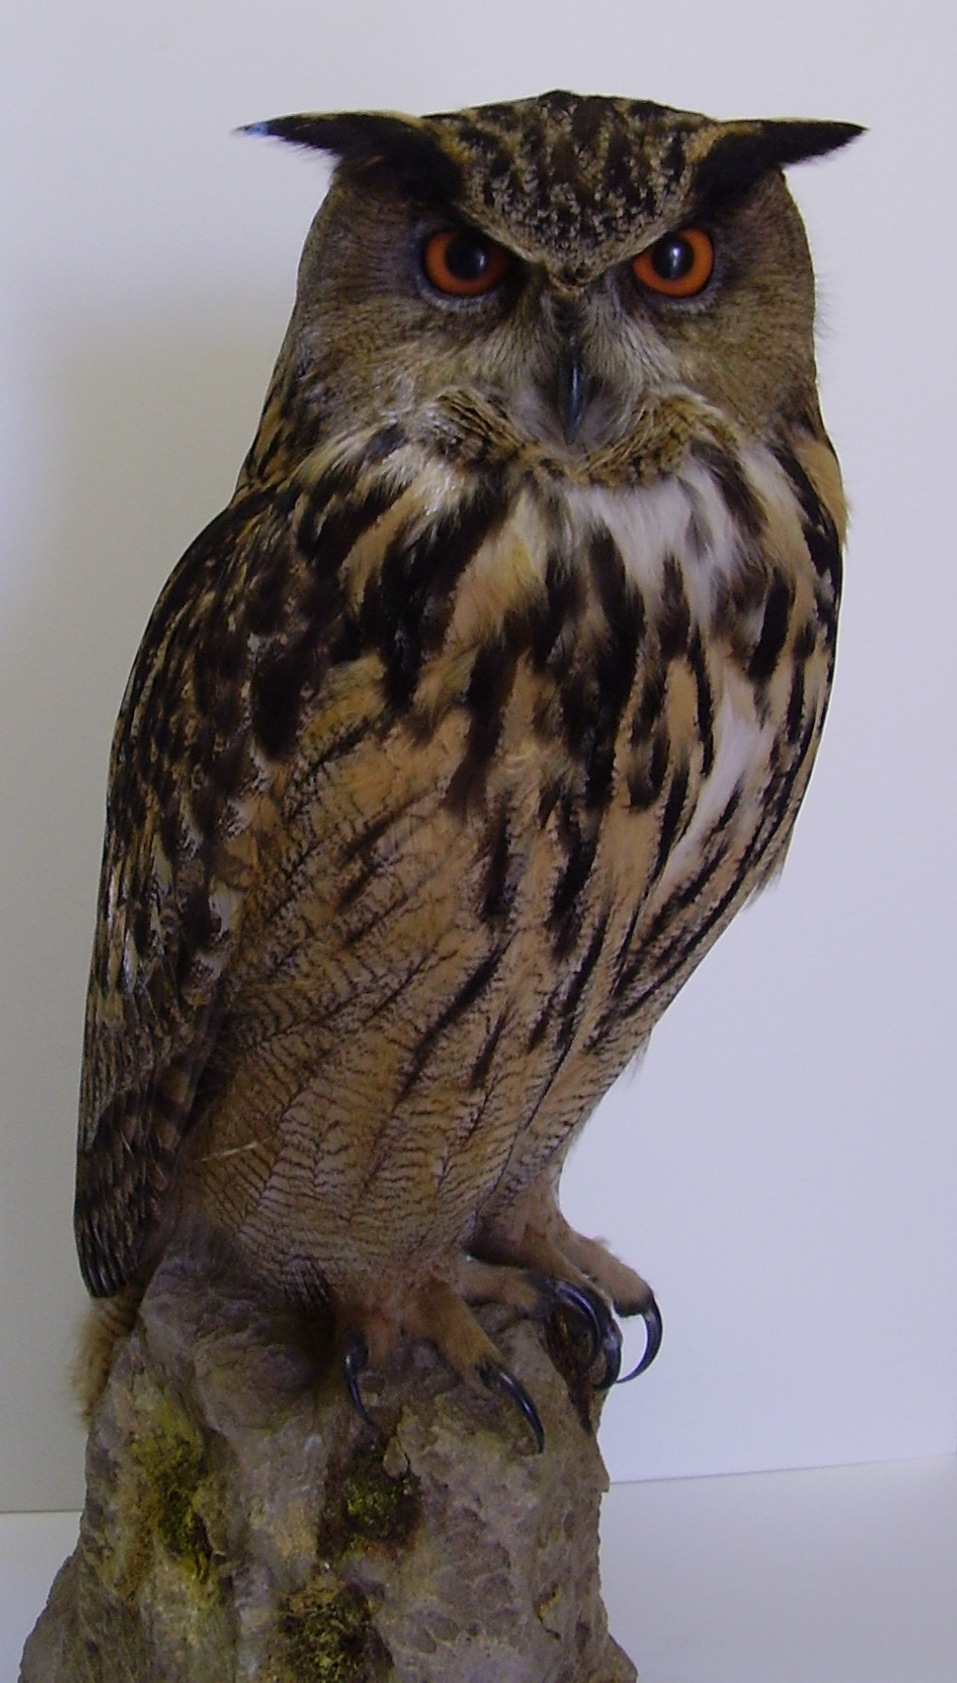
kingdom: Animalia
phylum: Chordata
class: Aves
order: Strigiformes
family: Strigidae
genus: Bubo
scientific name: Bubo bubo
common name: Eurasian eagle-owl
